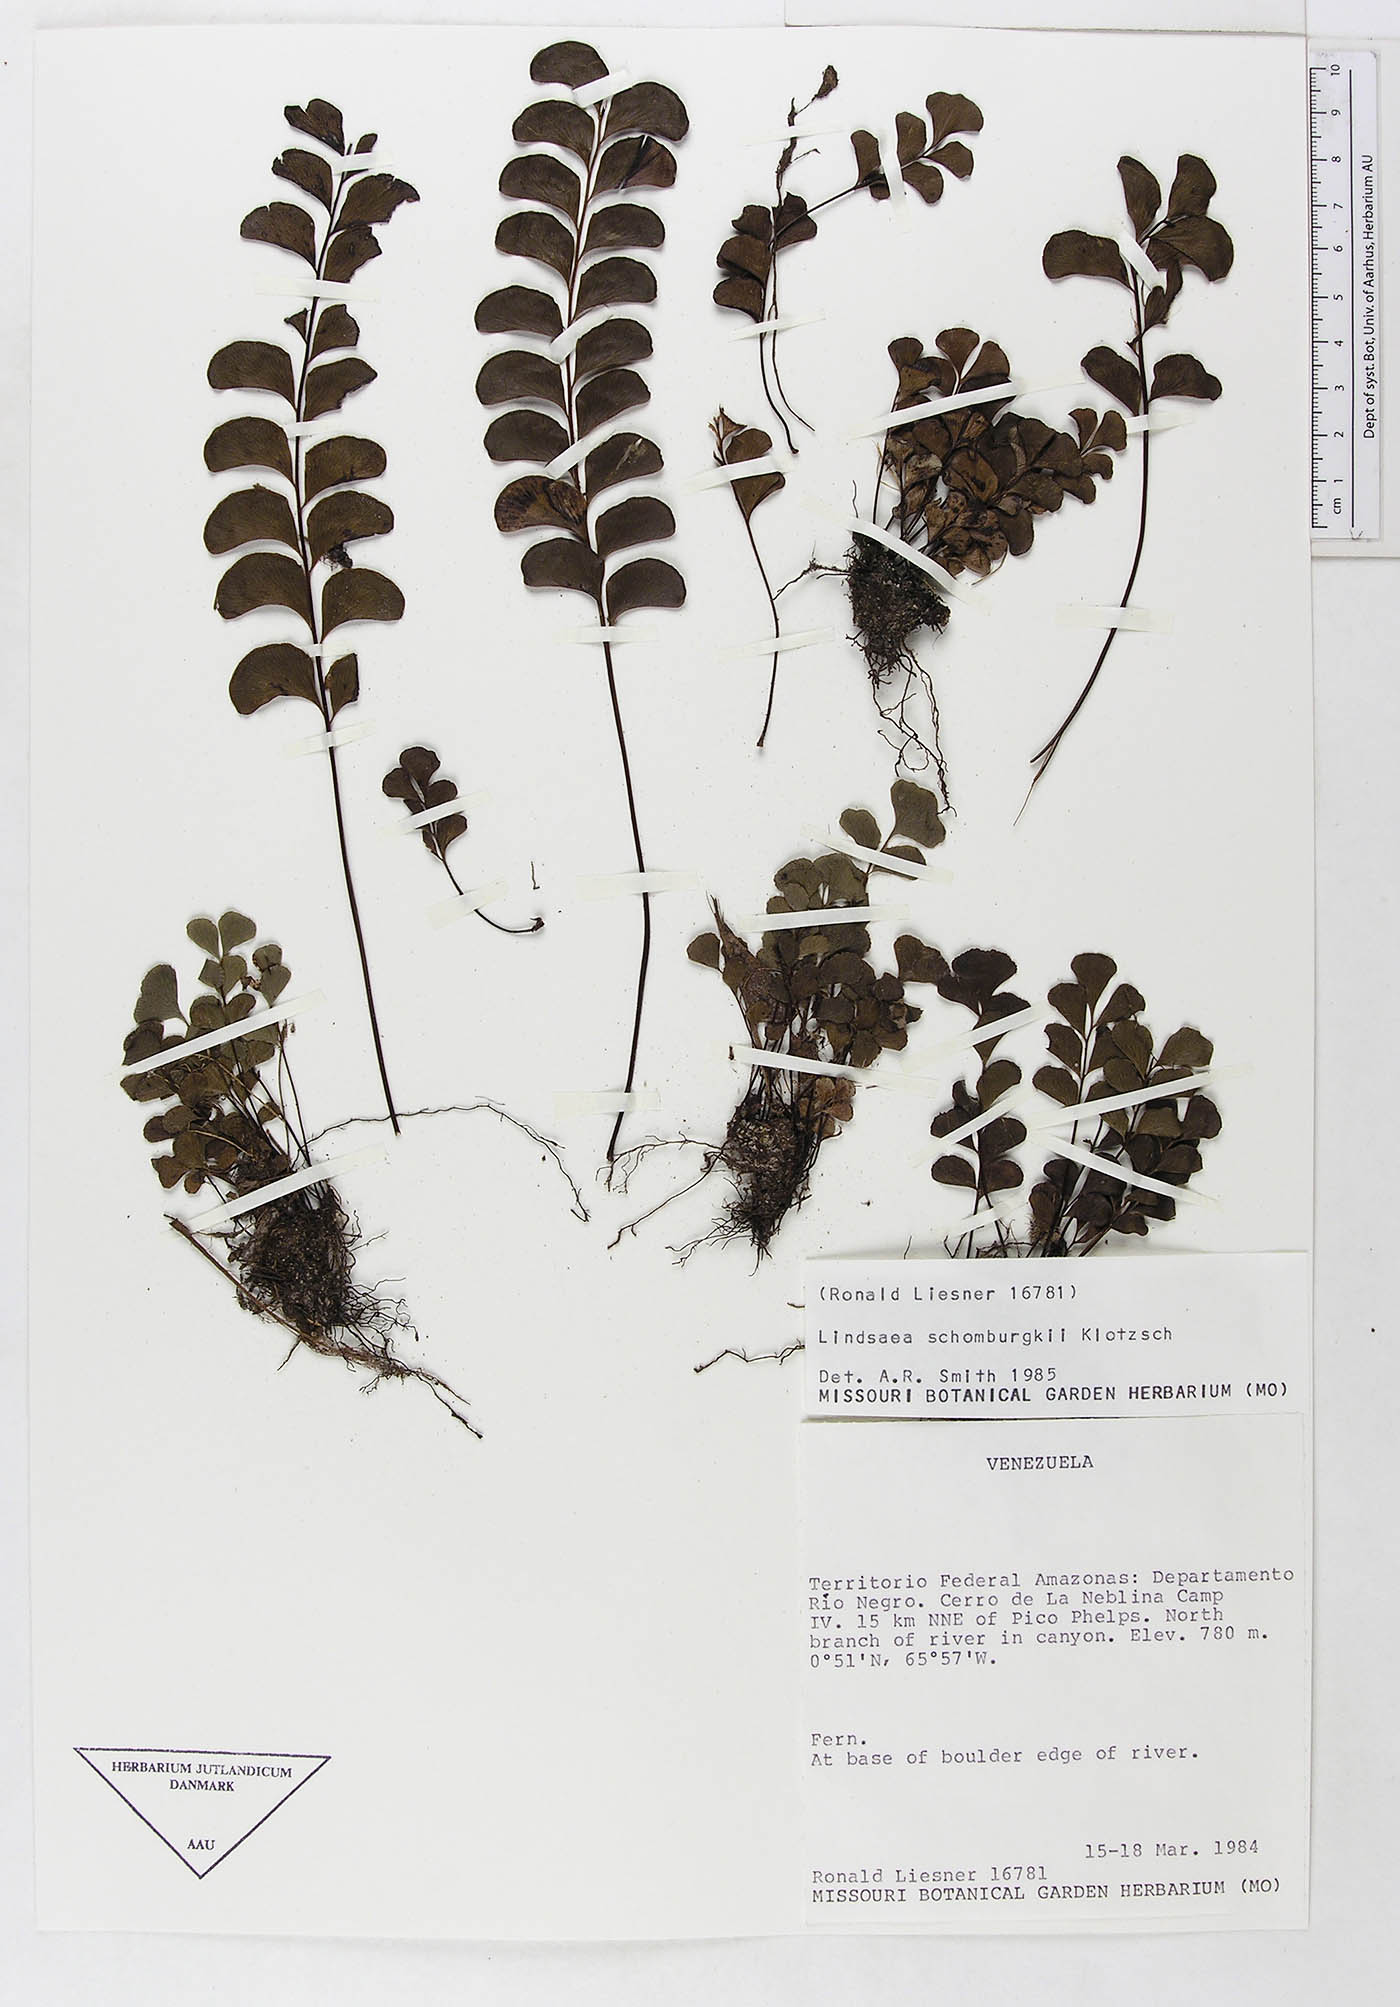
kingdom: Plantae
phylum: Tracheophyta
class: Polypodiopsida
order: Polypodiales
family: Dennstaedtiaceae
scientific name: Dennstaedtiaceae
